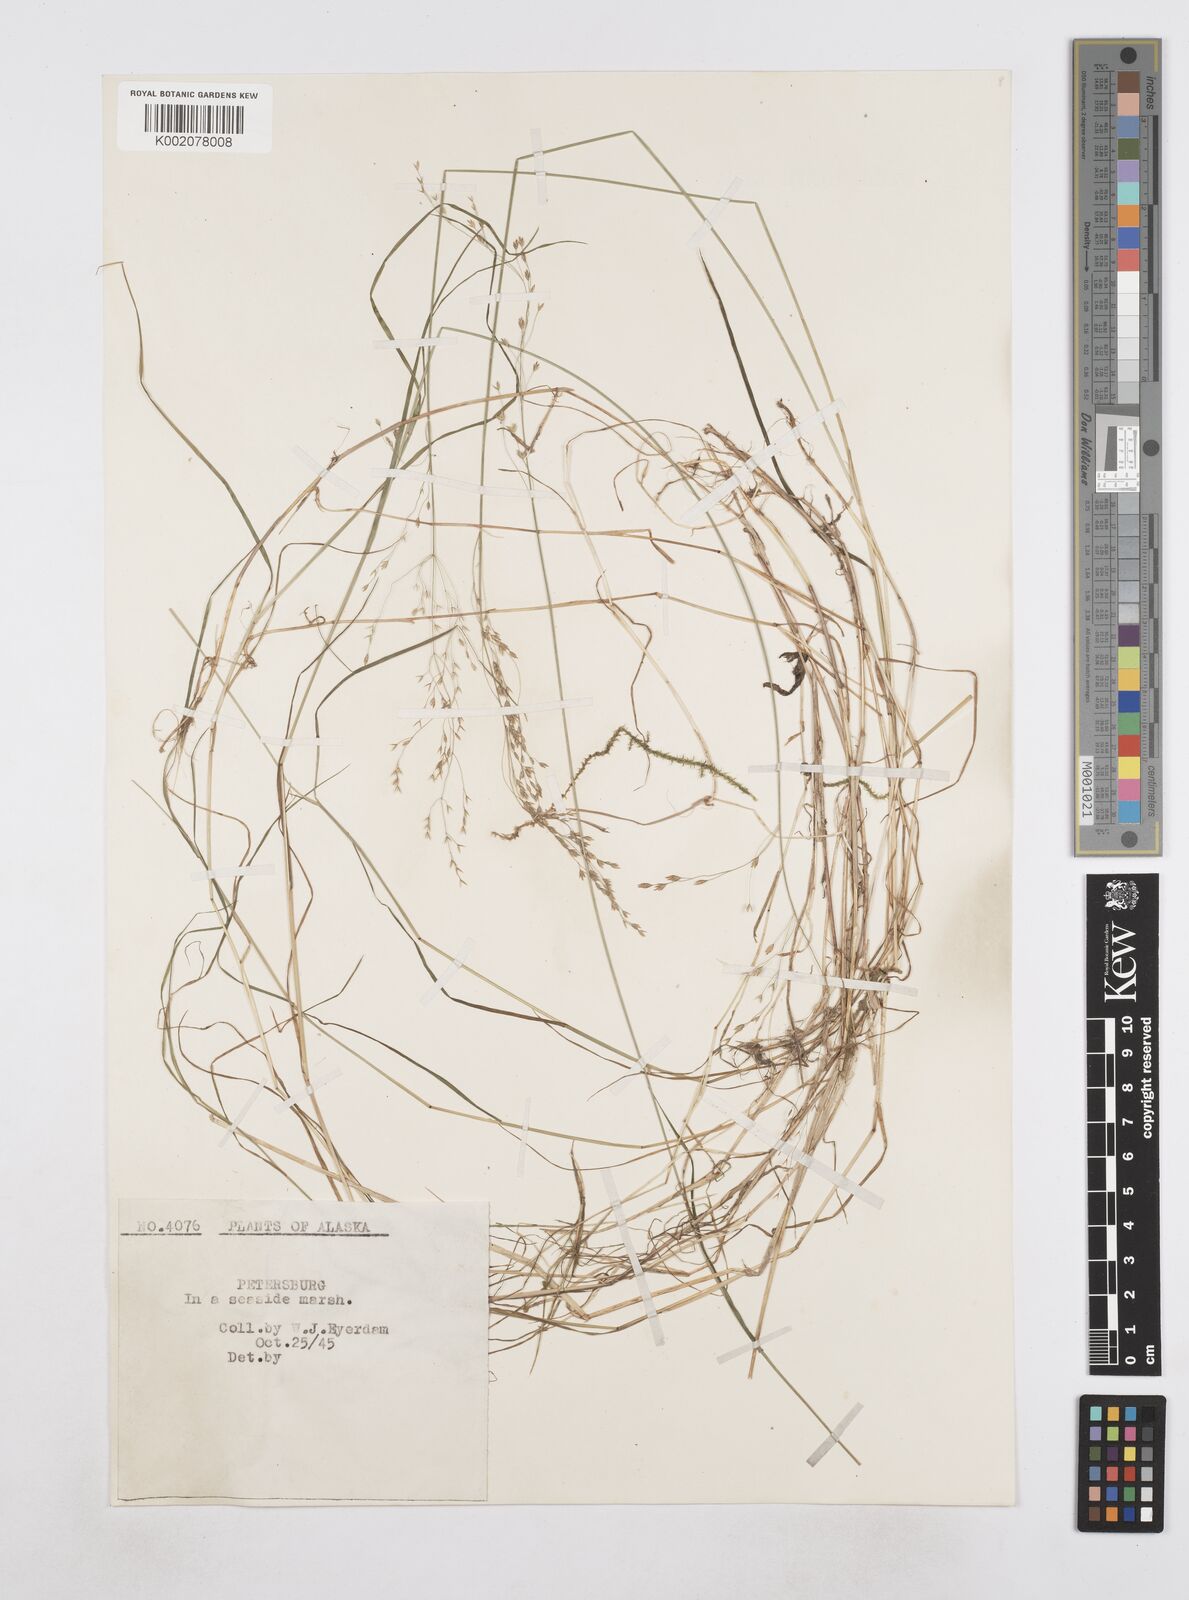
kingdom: Plantae
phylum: Tracheophyta
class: Liliopsida
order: Poales
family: Poaceae
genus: Poa
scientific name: Poa
